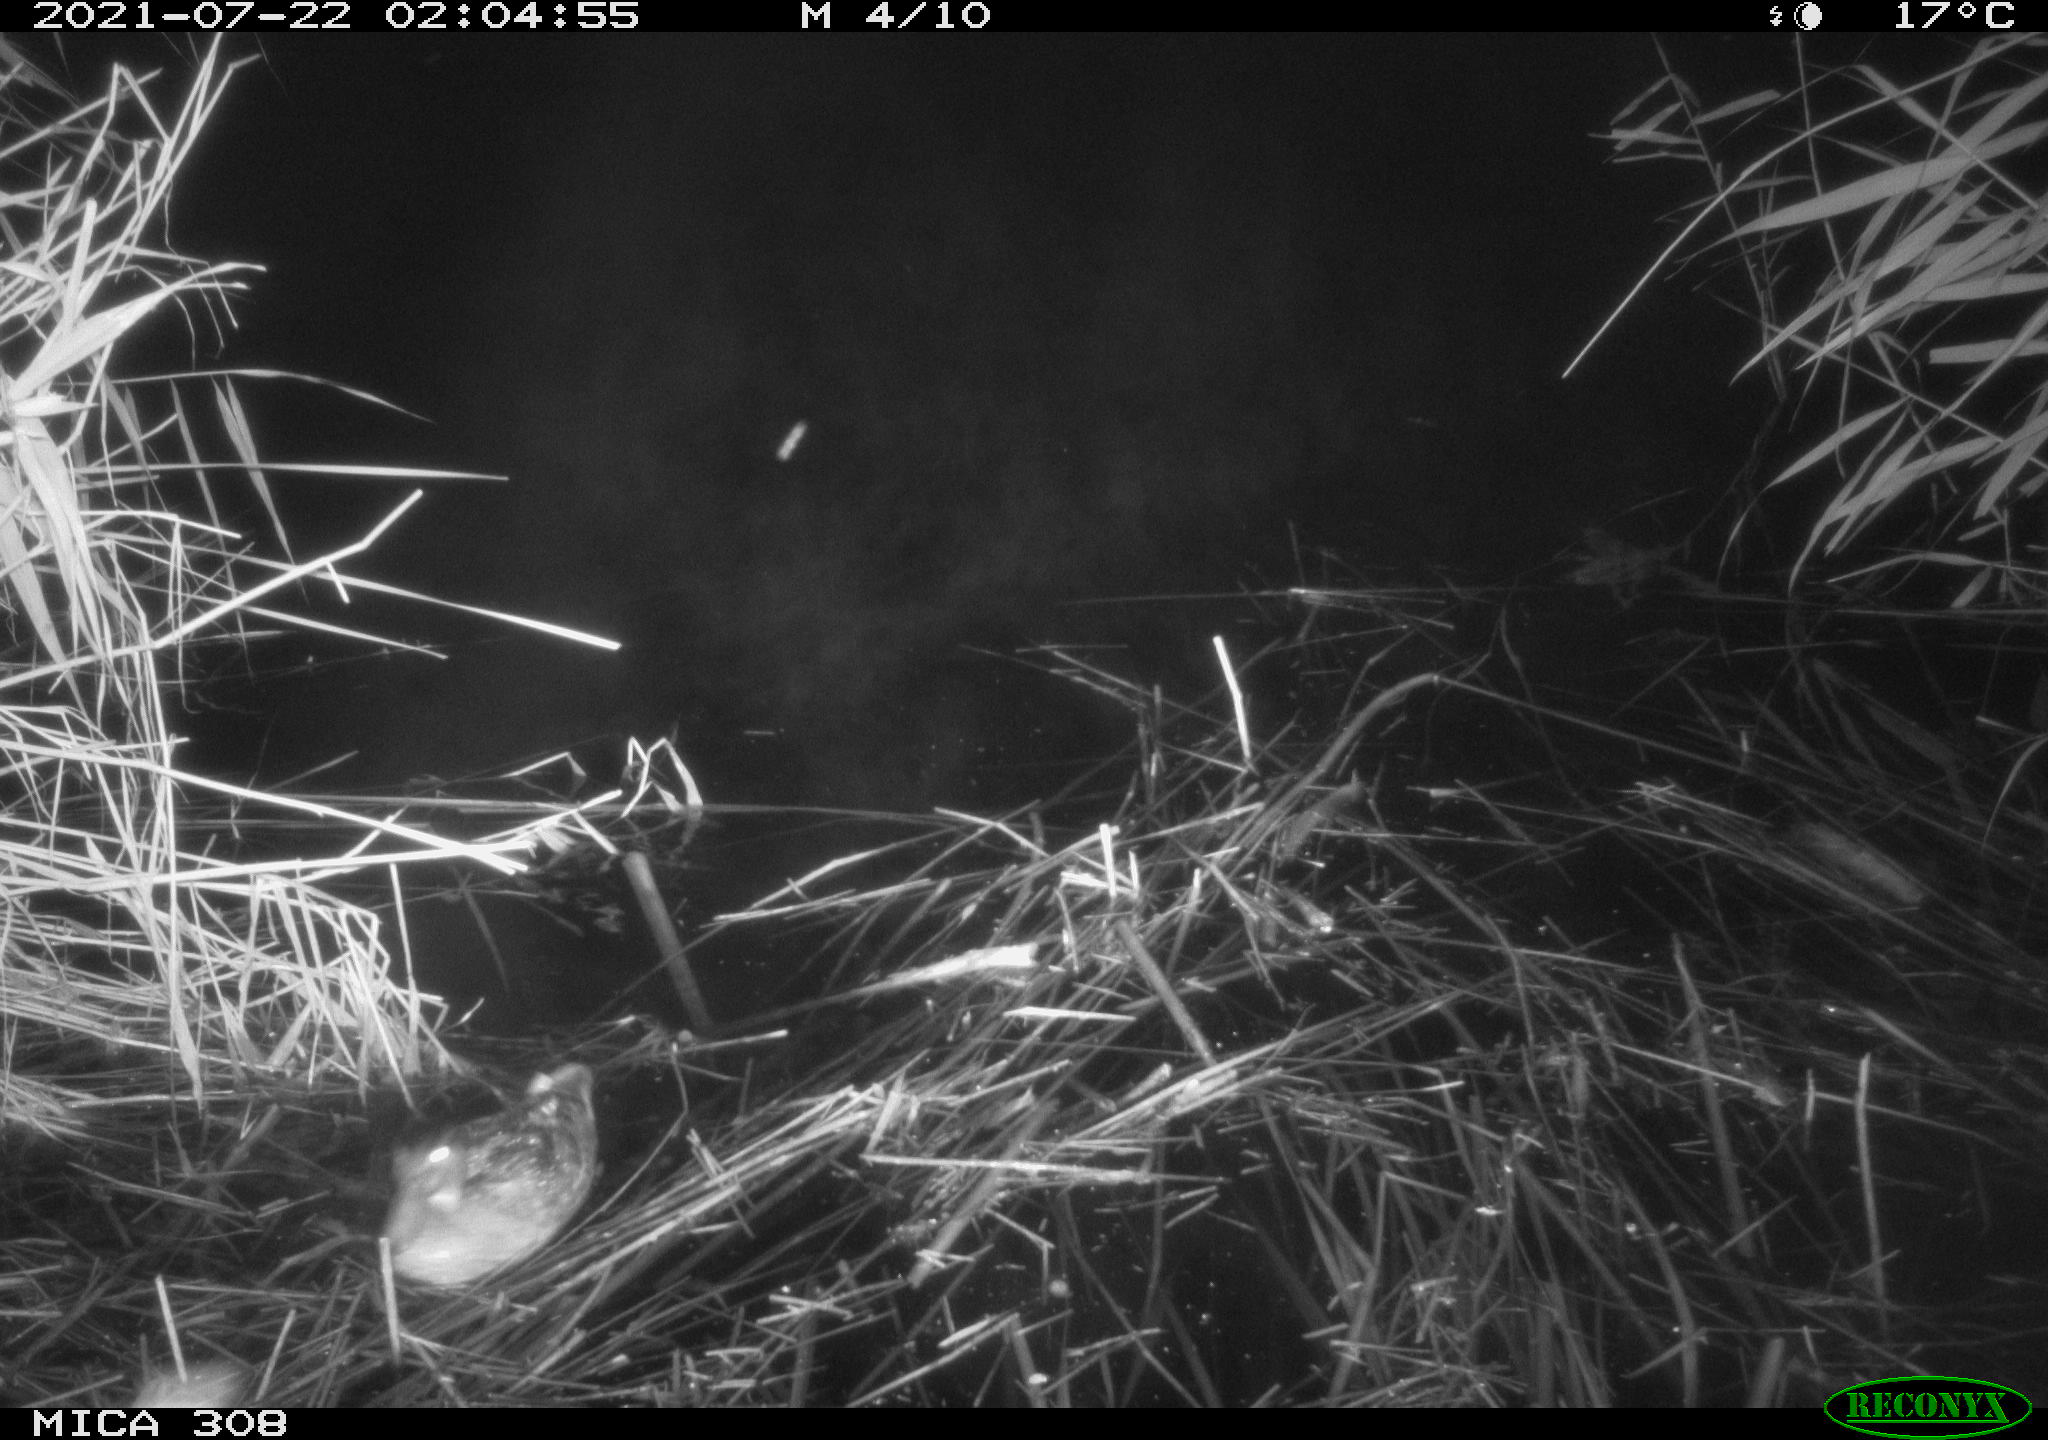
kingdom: Animalia
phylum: Chordata
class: Aves
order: Anseriformes
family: Anatidae
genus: Anas
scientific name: Anas platyrhynchos
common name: Mallard
